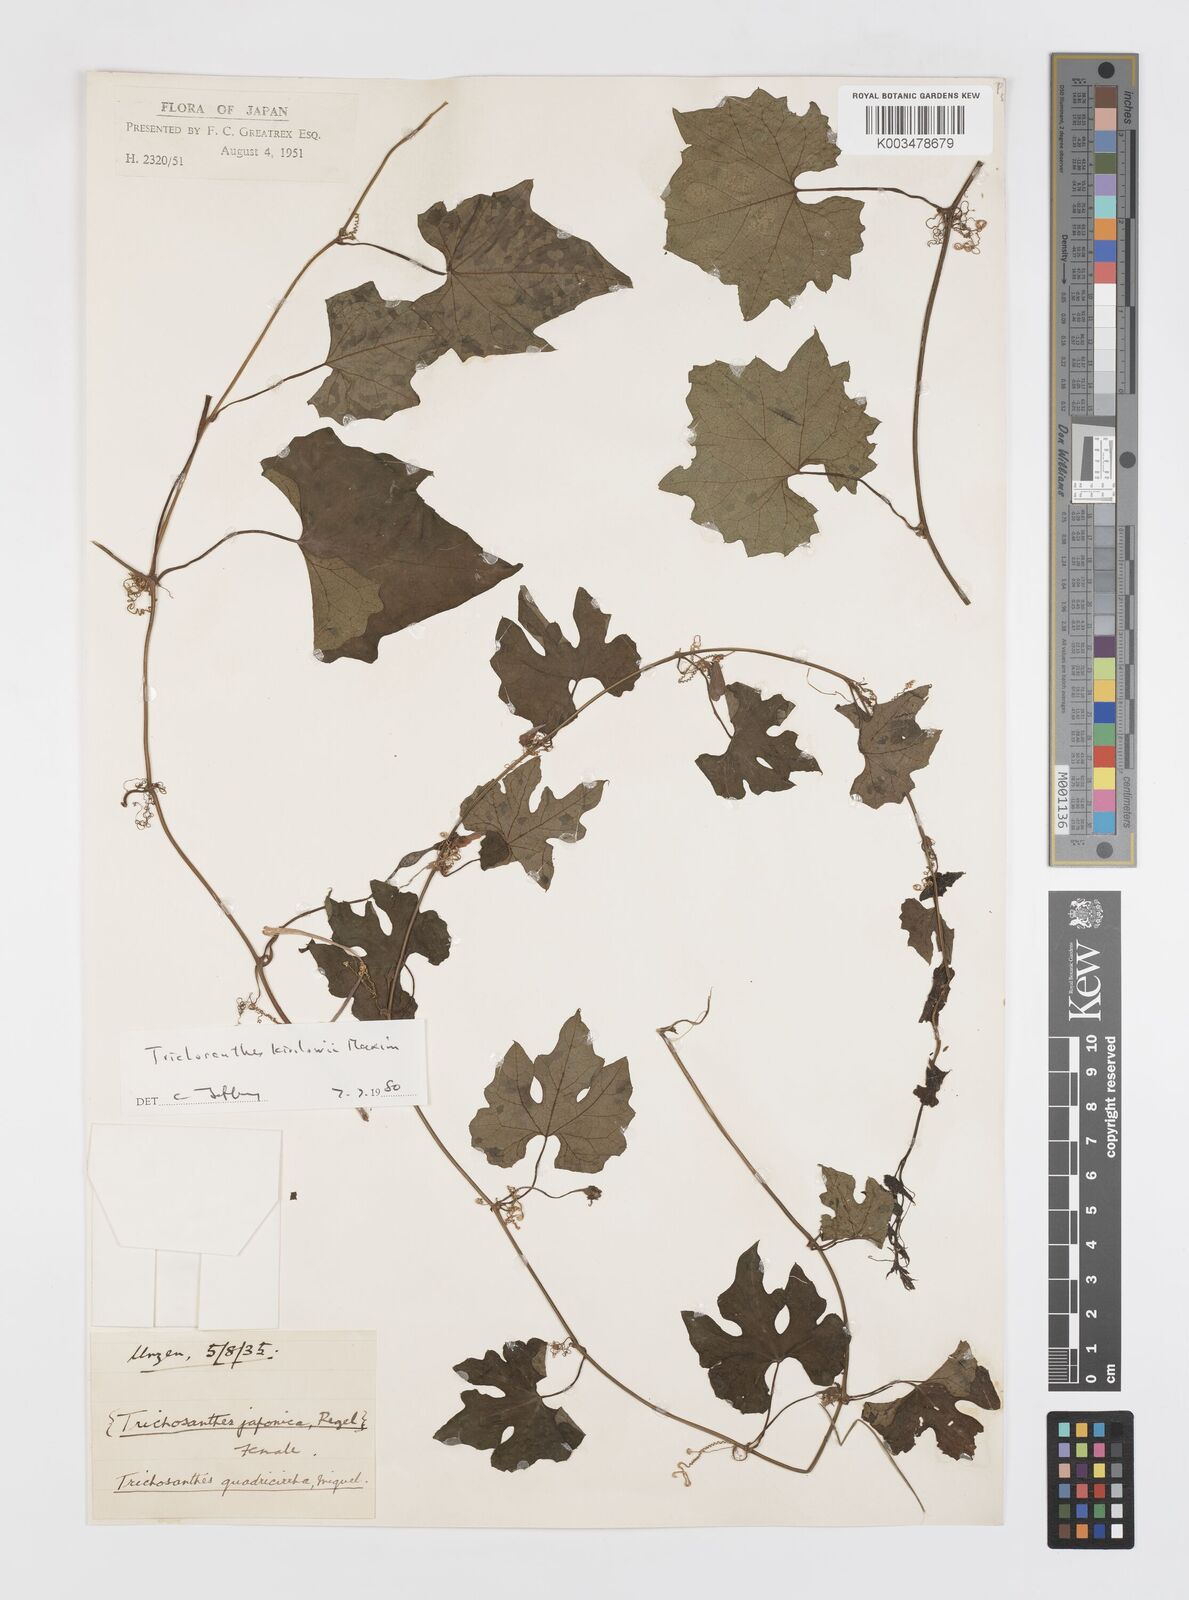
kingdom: Plantae
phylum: Tracheophyta
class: Magnoliopsida
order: Cucurbitales
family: Cucurbitaceae
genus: Trichosanthes
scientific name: Trichosanthes kirilowii
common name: Chinese-cucumber
